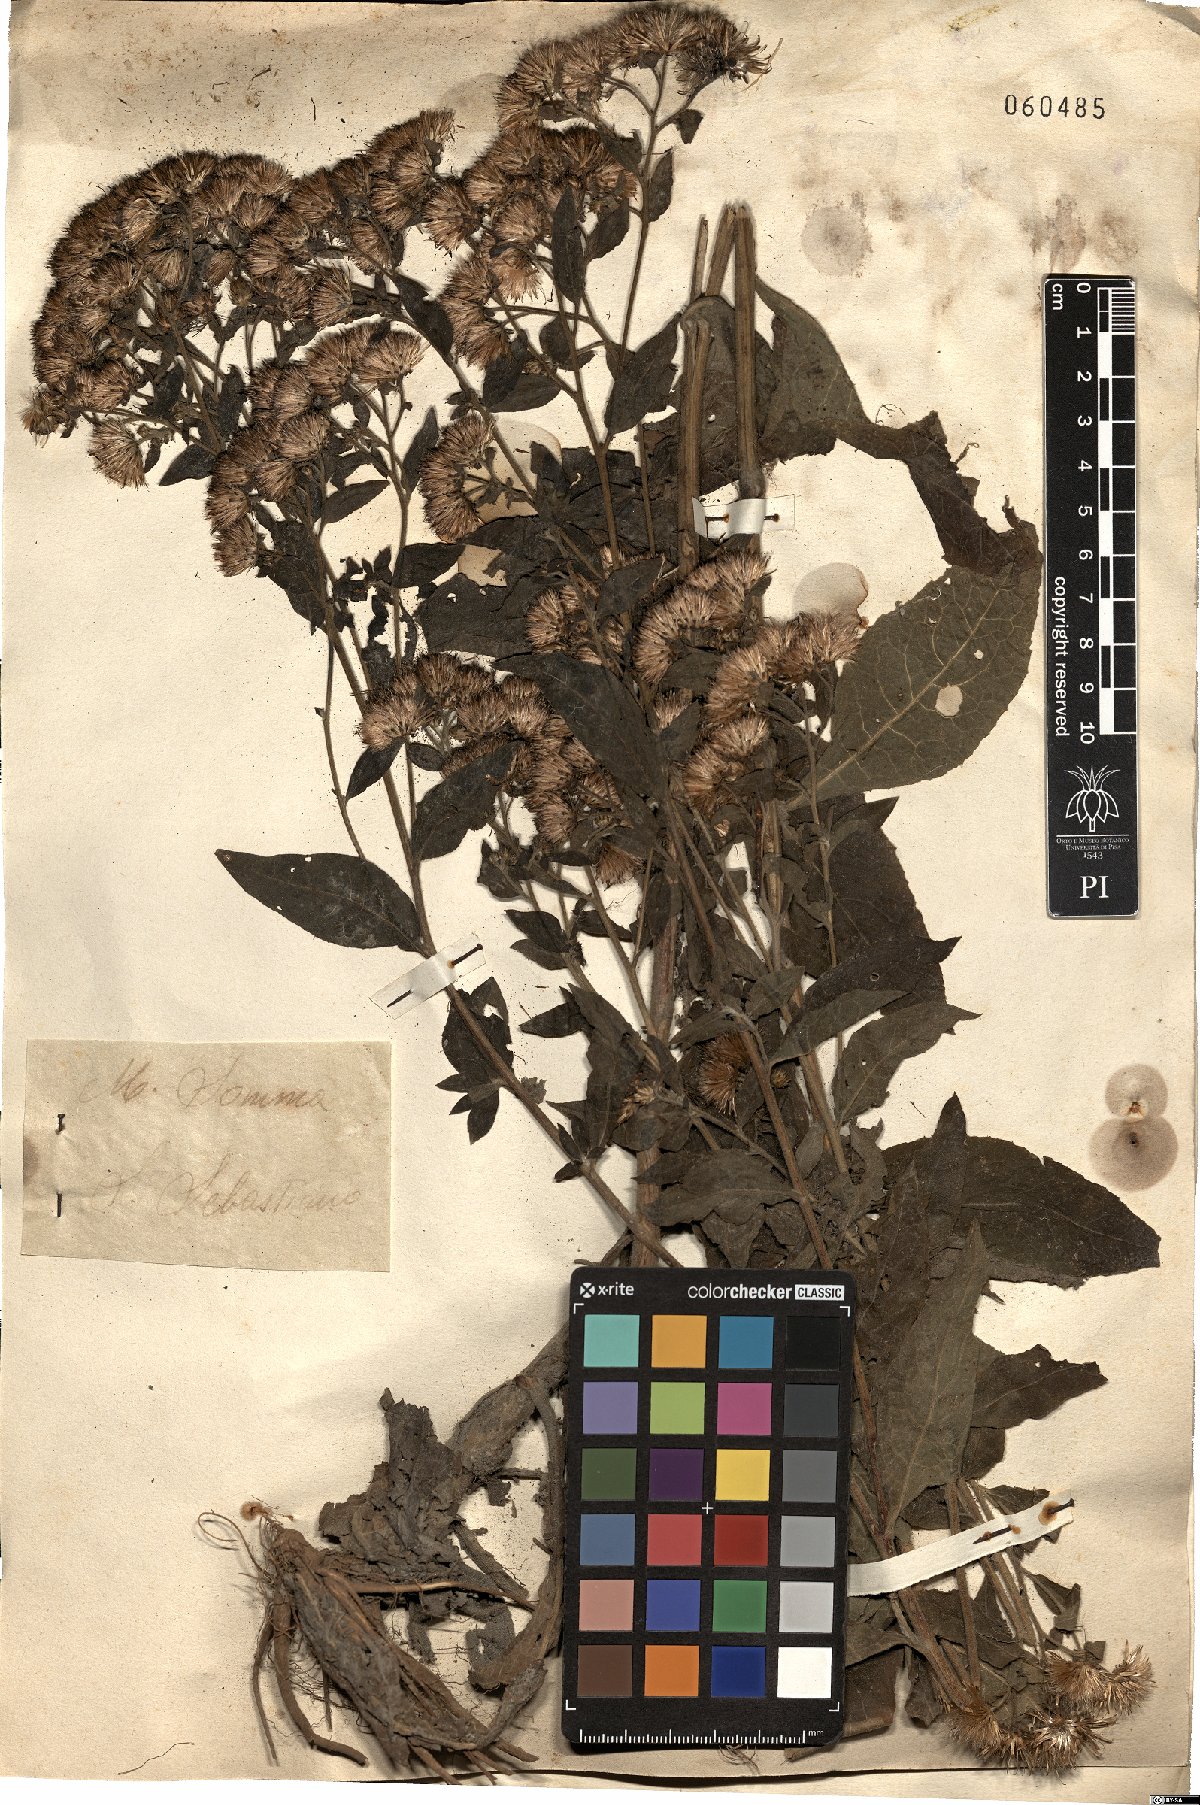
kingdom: Plantae
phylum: Tracheophyta
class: Magnoliopsida
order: Asterales
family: Asteraceae
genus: Pentanema
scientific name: Pentanema squarrosum
